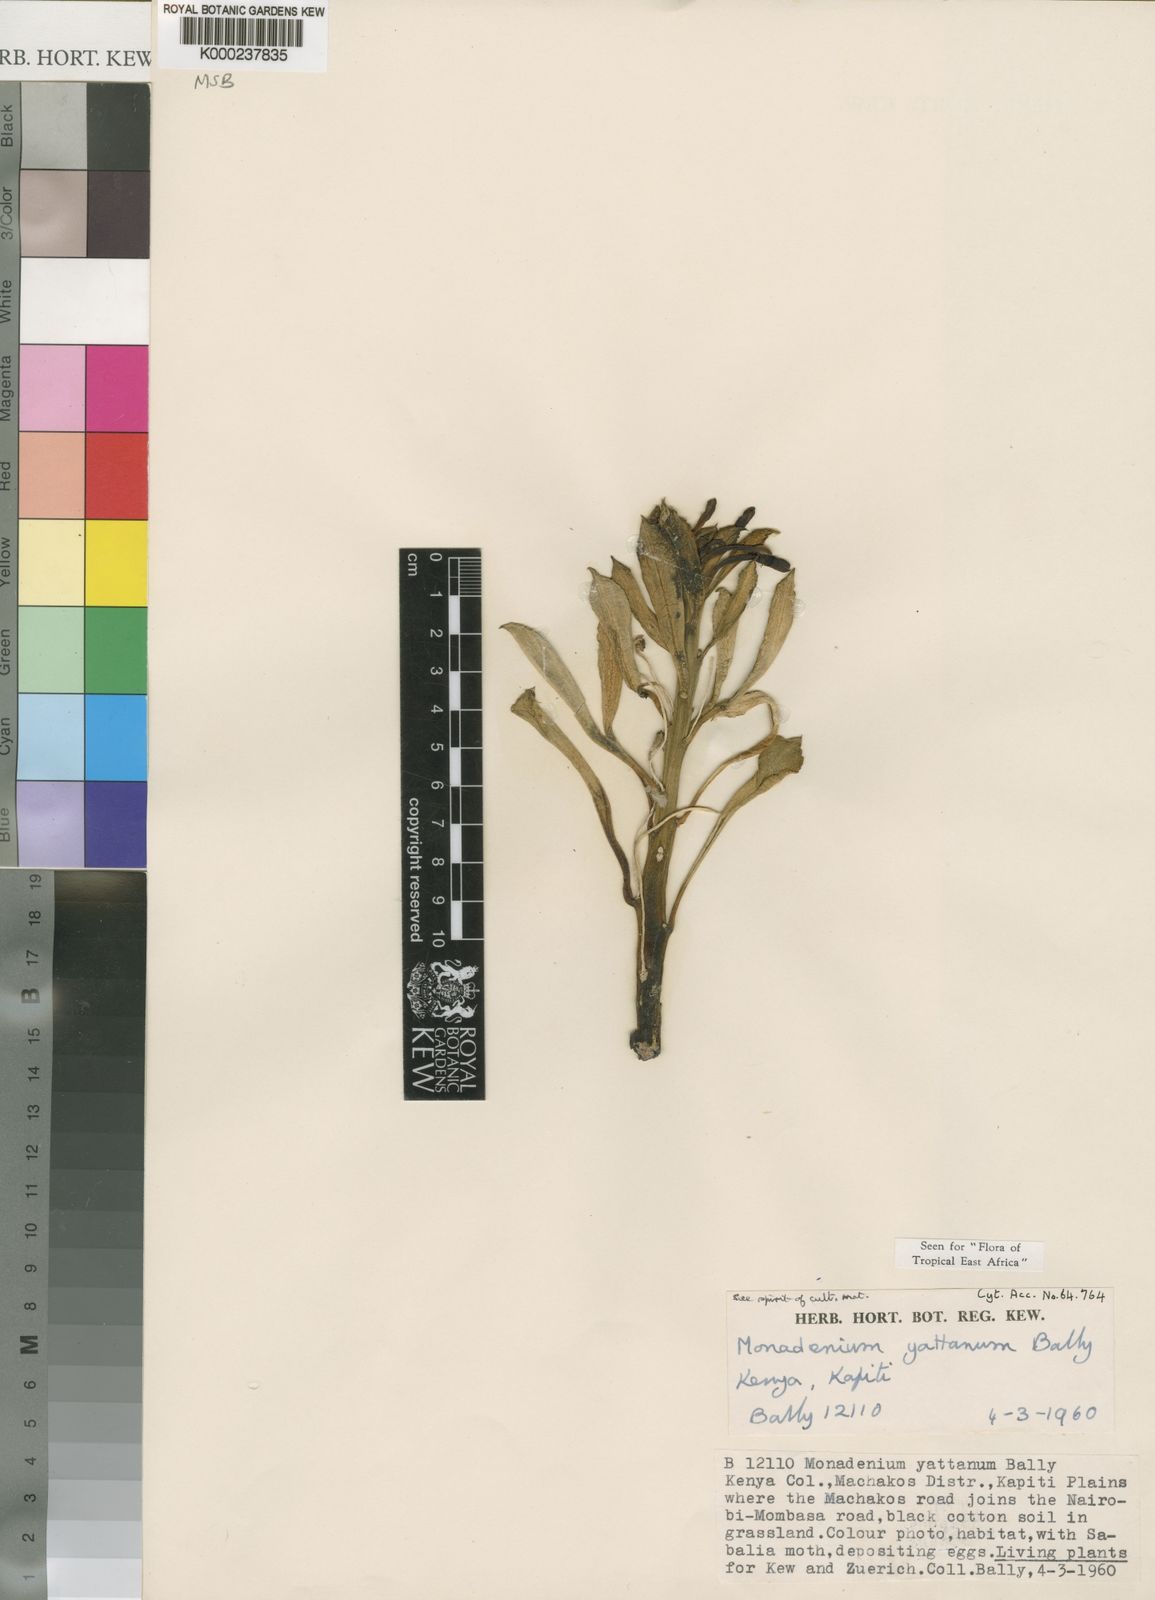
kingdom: Plantae
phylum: Tracheophyta
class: Magnoliopsida
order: Malpighiales
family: Euphorbiaceae
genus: Euphorbia
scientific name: Euphorbia yattana
